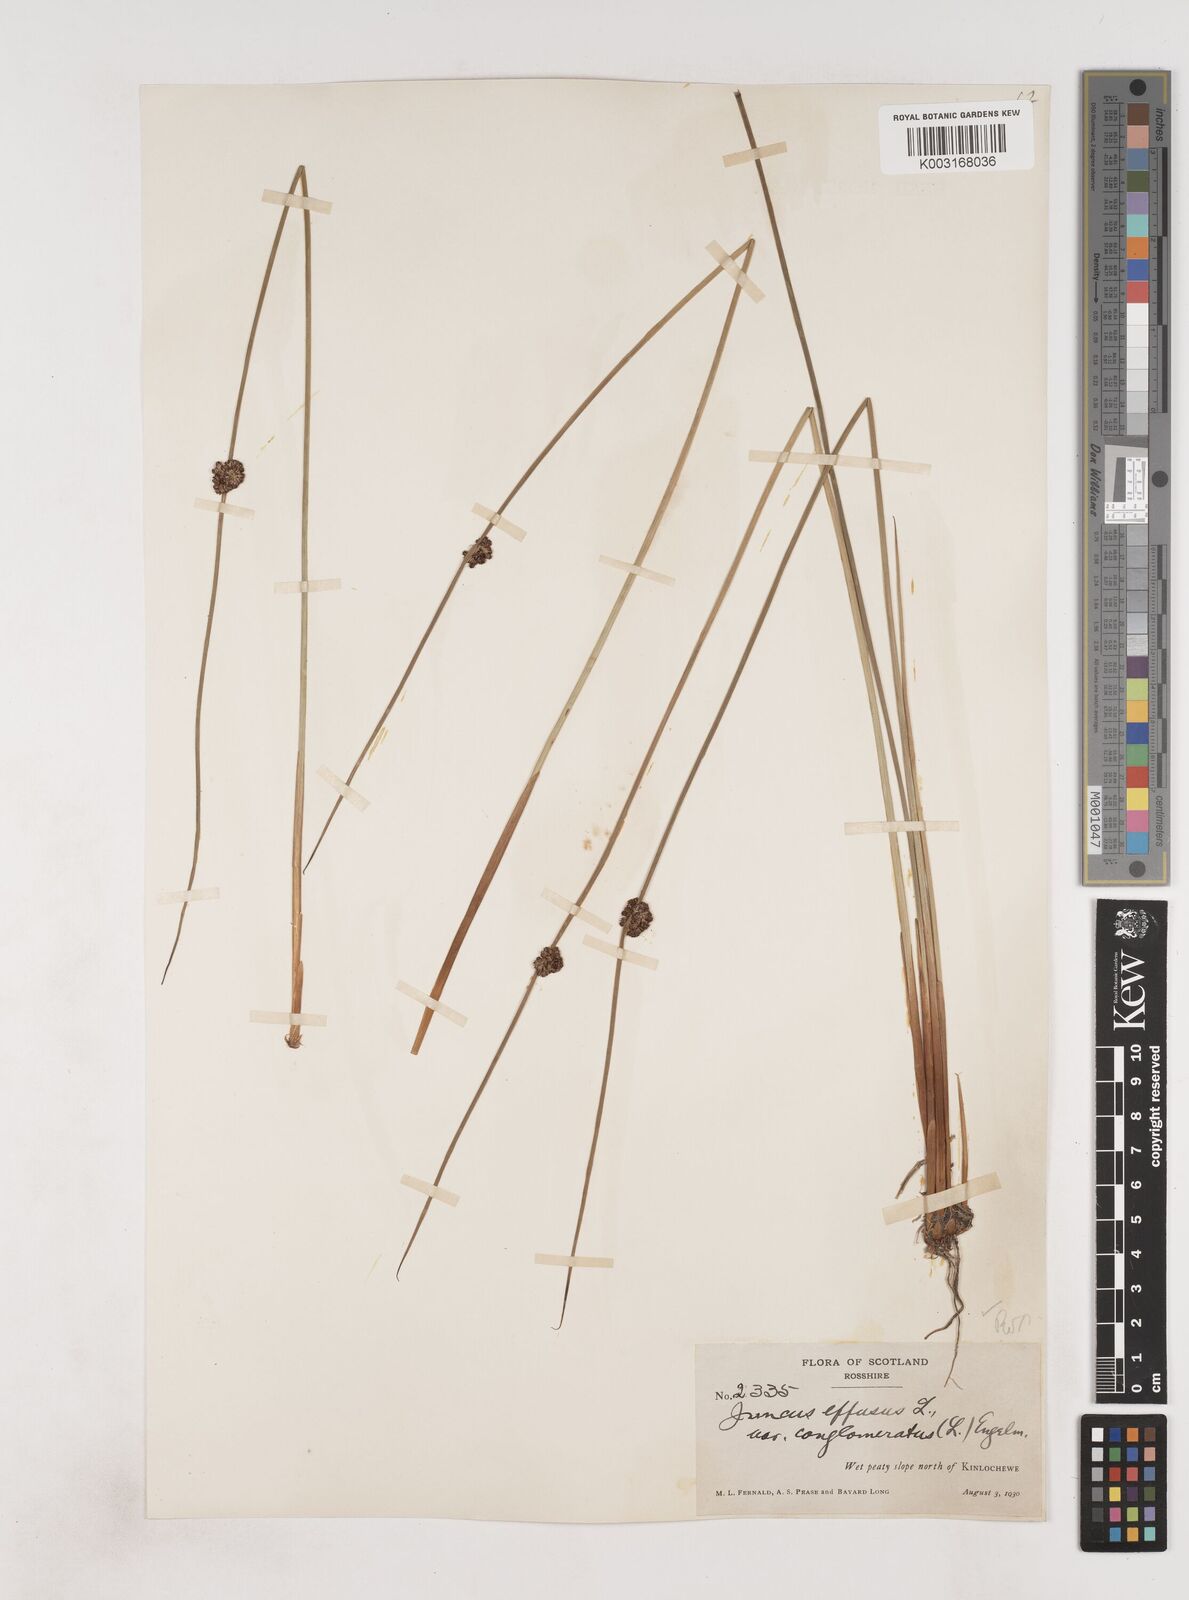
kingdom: Plantae
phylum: Tracheophyta
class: Liliopsida
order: Poales
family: Juncaceae
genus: Juncus
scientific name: Juncus conglomeratus
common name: Compact rush
